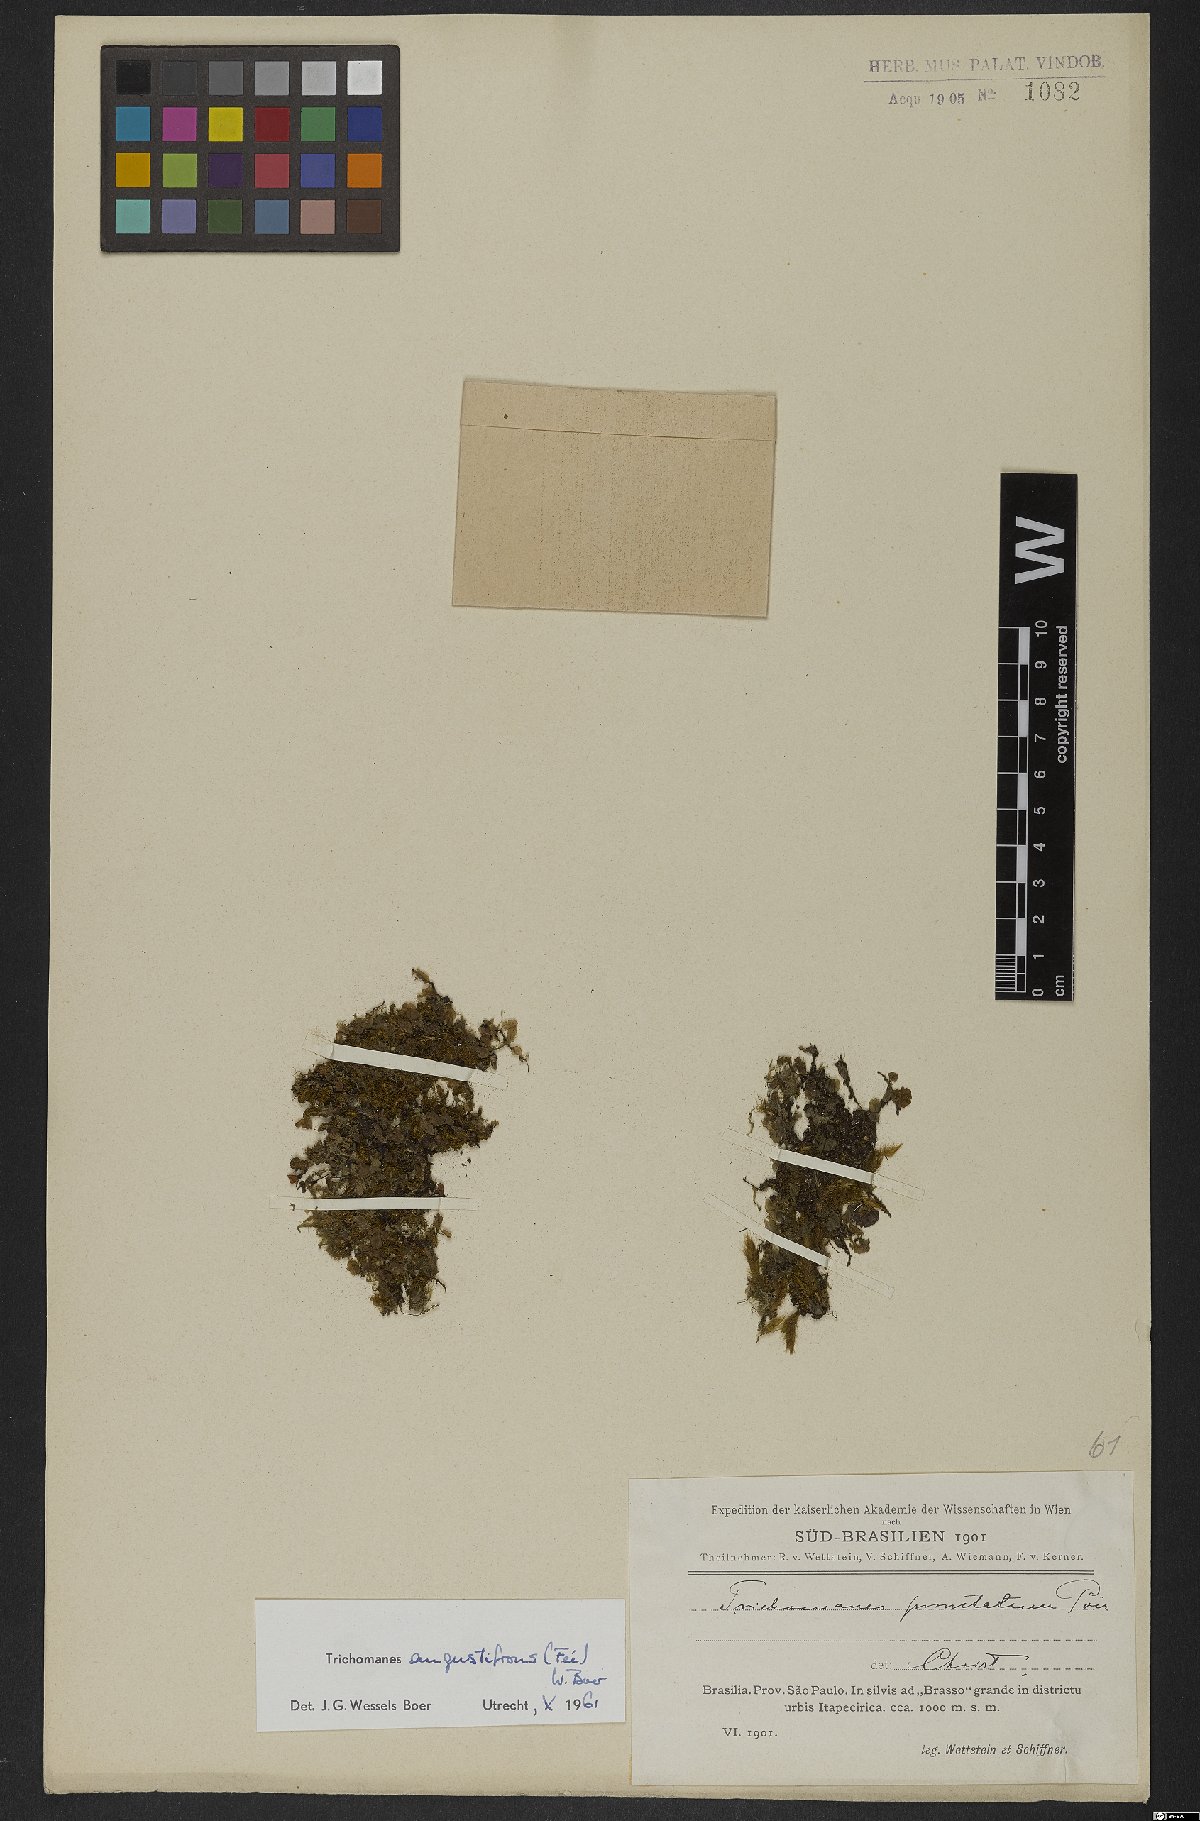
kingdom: Plantae
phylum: Tracheophyta
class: Polypodiopsida
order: Hymenophyllales
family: Hymenophyllaceae
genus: Didymoglossum
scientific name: Didymoglossum angustifrons
